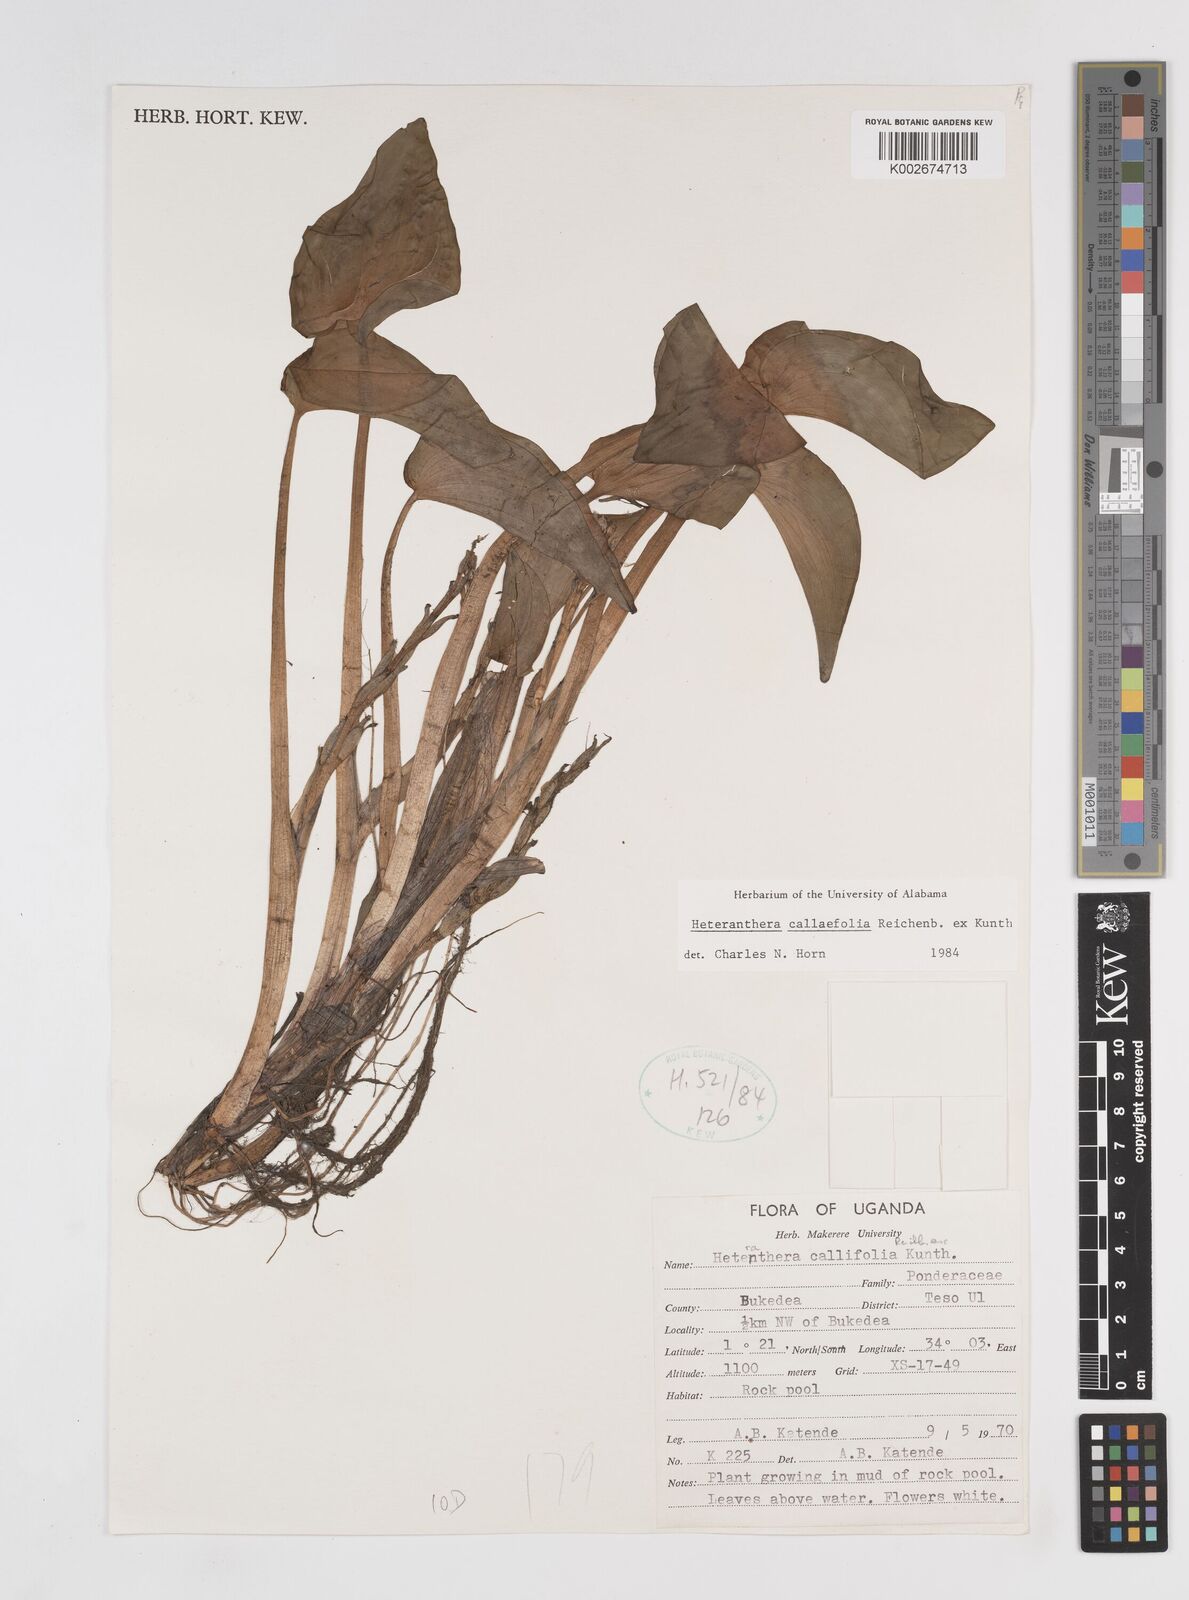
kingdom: Plantae
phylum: Tracheophyta
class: Liliopsida
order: Commelinales
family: Pontederiaceae
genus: Heteranthera
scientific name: Heteranthera callifolia
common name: Mud plantain
